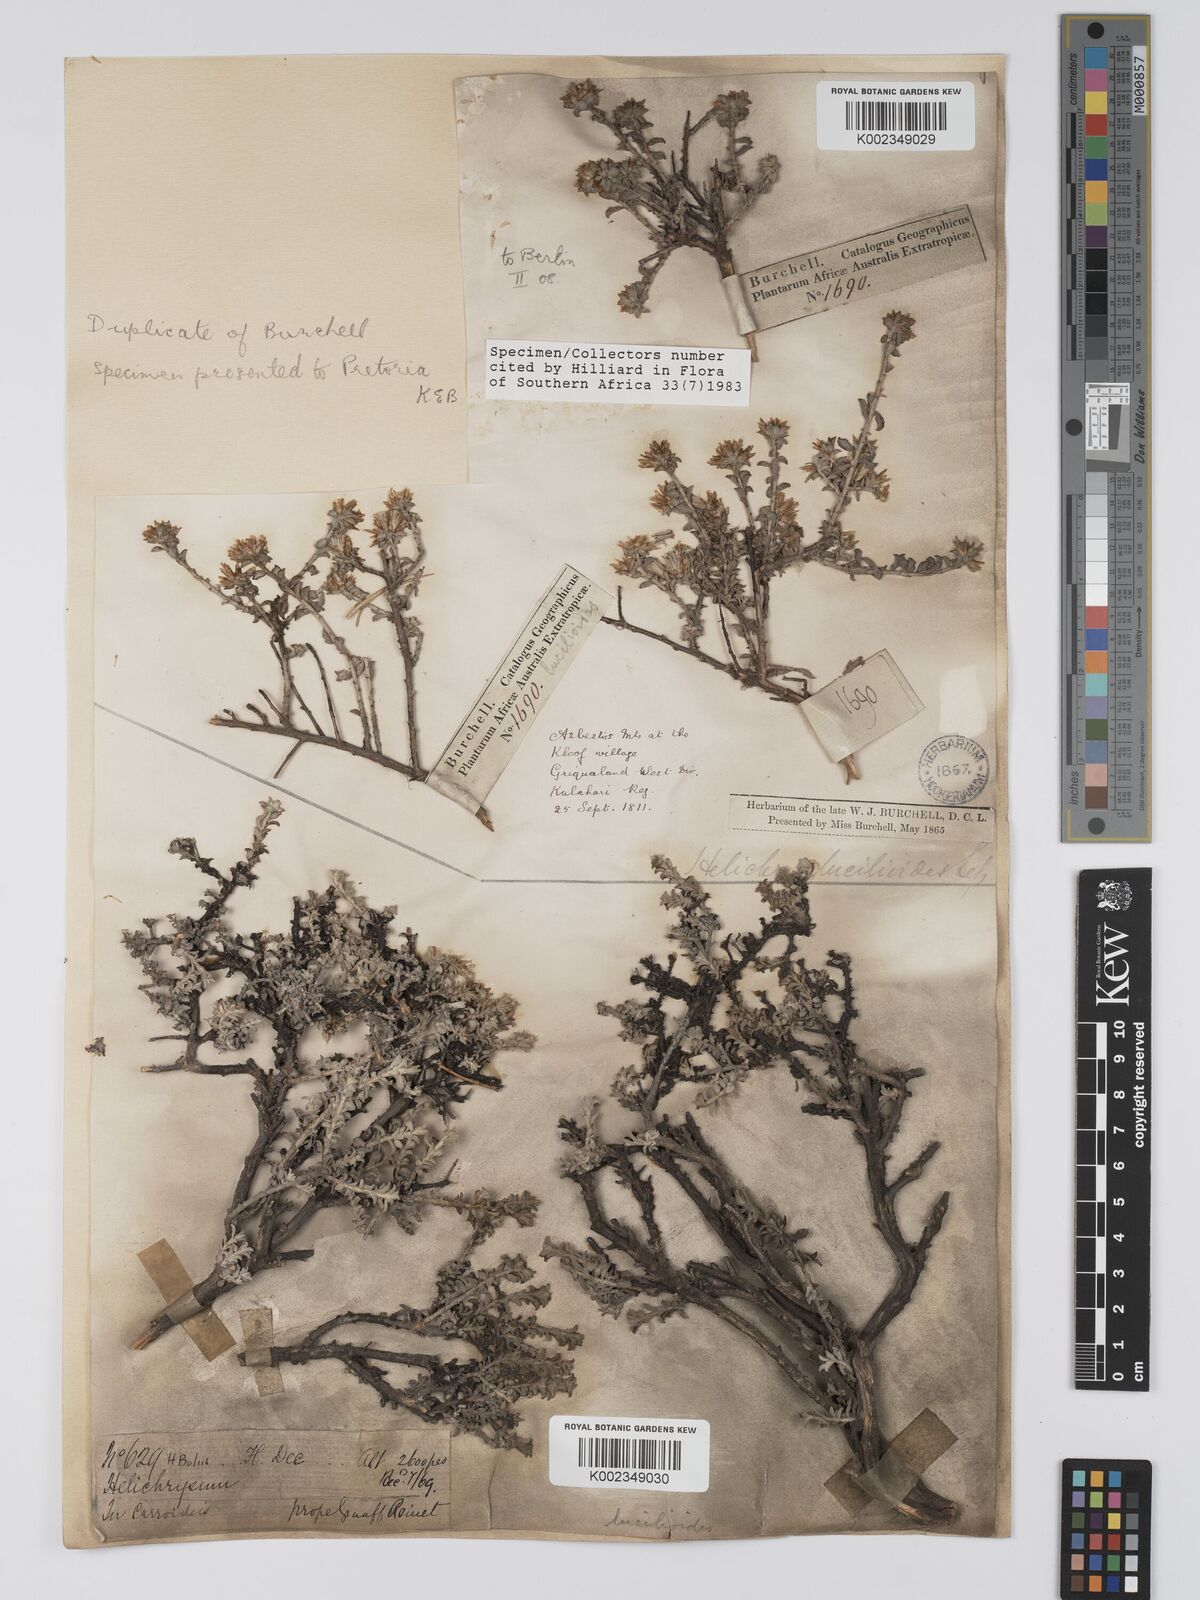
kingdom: Plantae
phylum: Tracheophyta
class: Magnoliopsida
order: Asterales
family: Asteraceae
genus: Helichrysum
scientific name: Helichrysum lucilioides
